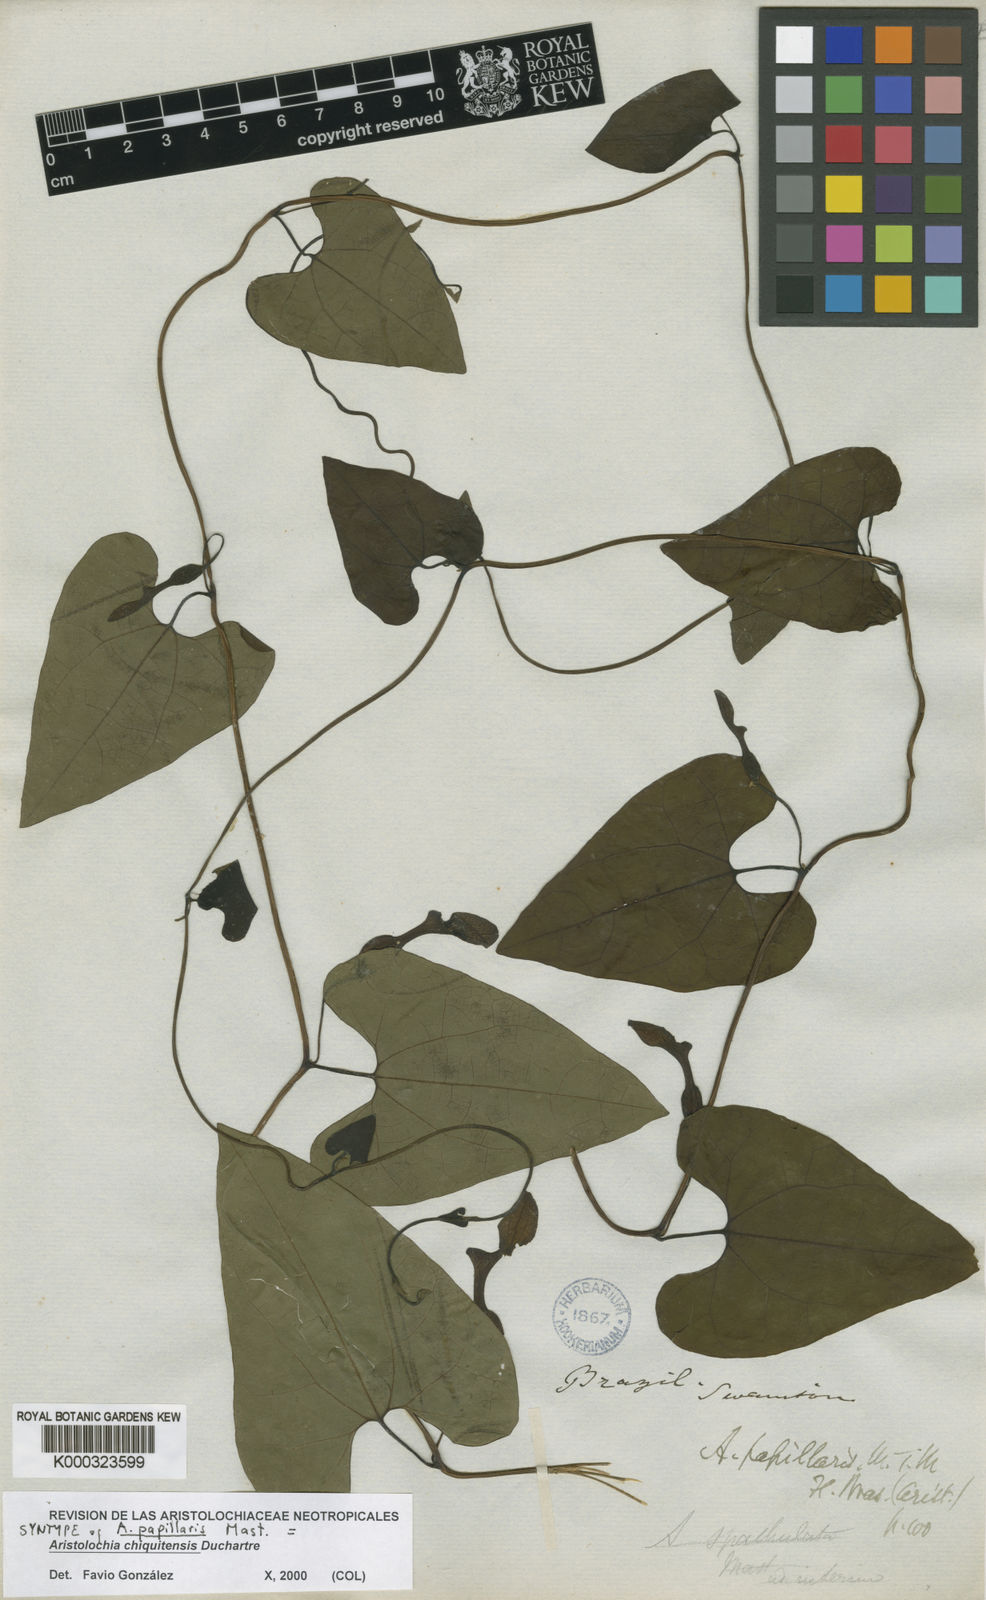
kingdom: Plantae
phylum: Tracheophyta
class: Magnoliopsida
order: Piperales
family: Aristolochiaceae
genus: Aristolochia
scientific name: Aristolochia chiquitensis
